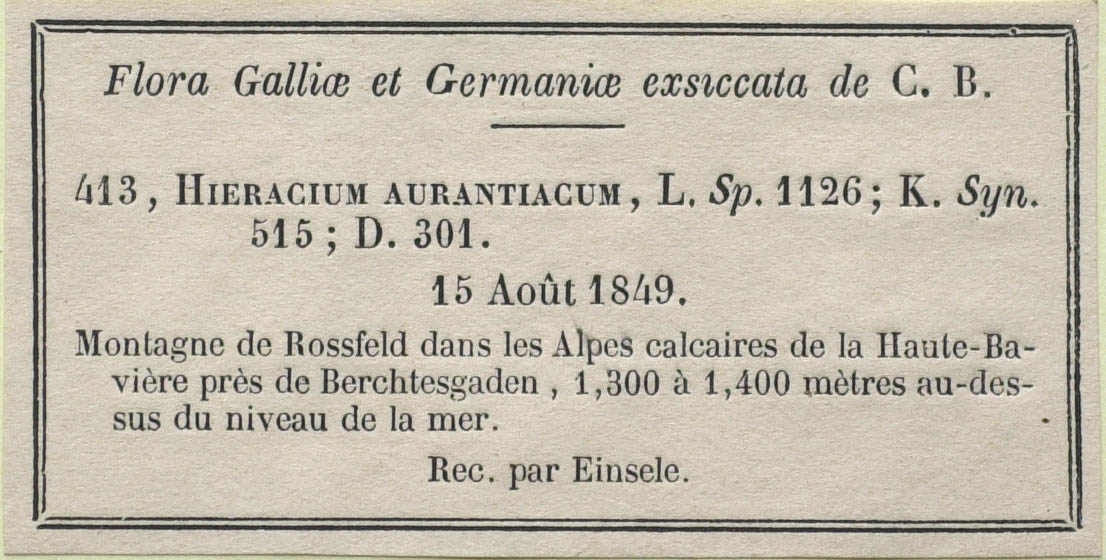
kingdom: Plantae
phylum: Tracheophyta
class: Magnoliopsida
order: Asterales
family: Asteraceae
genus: Pilosella
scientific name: Pilosella aurantiaca
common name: Fox-and-cubs
